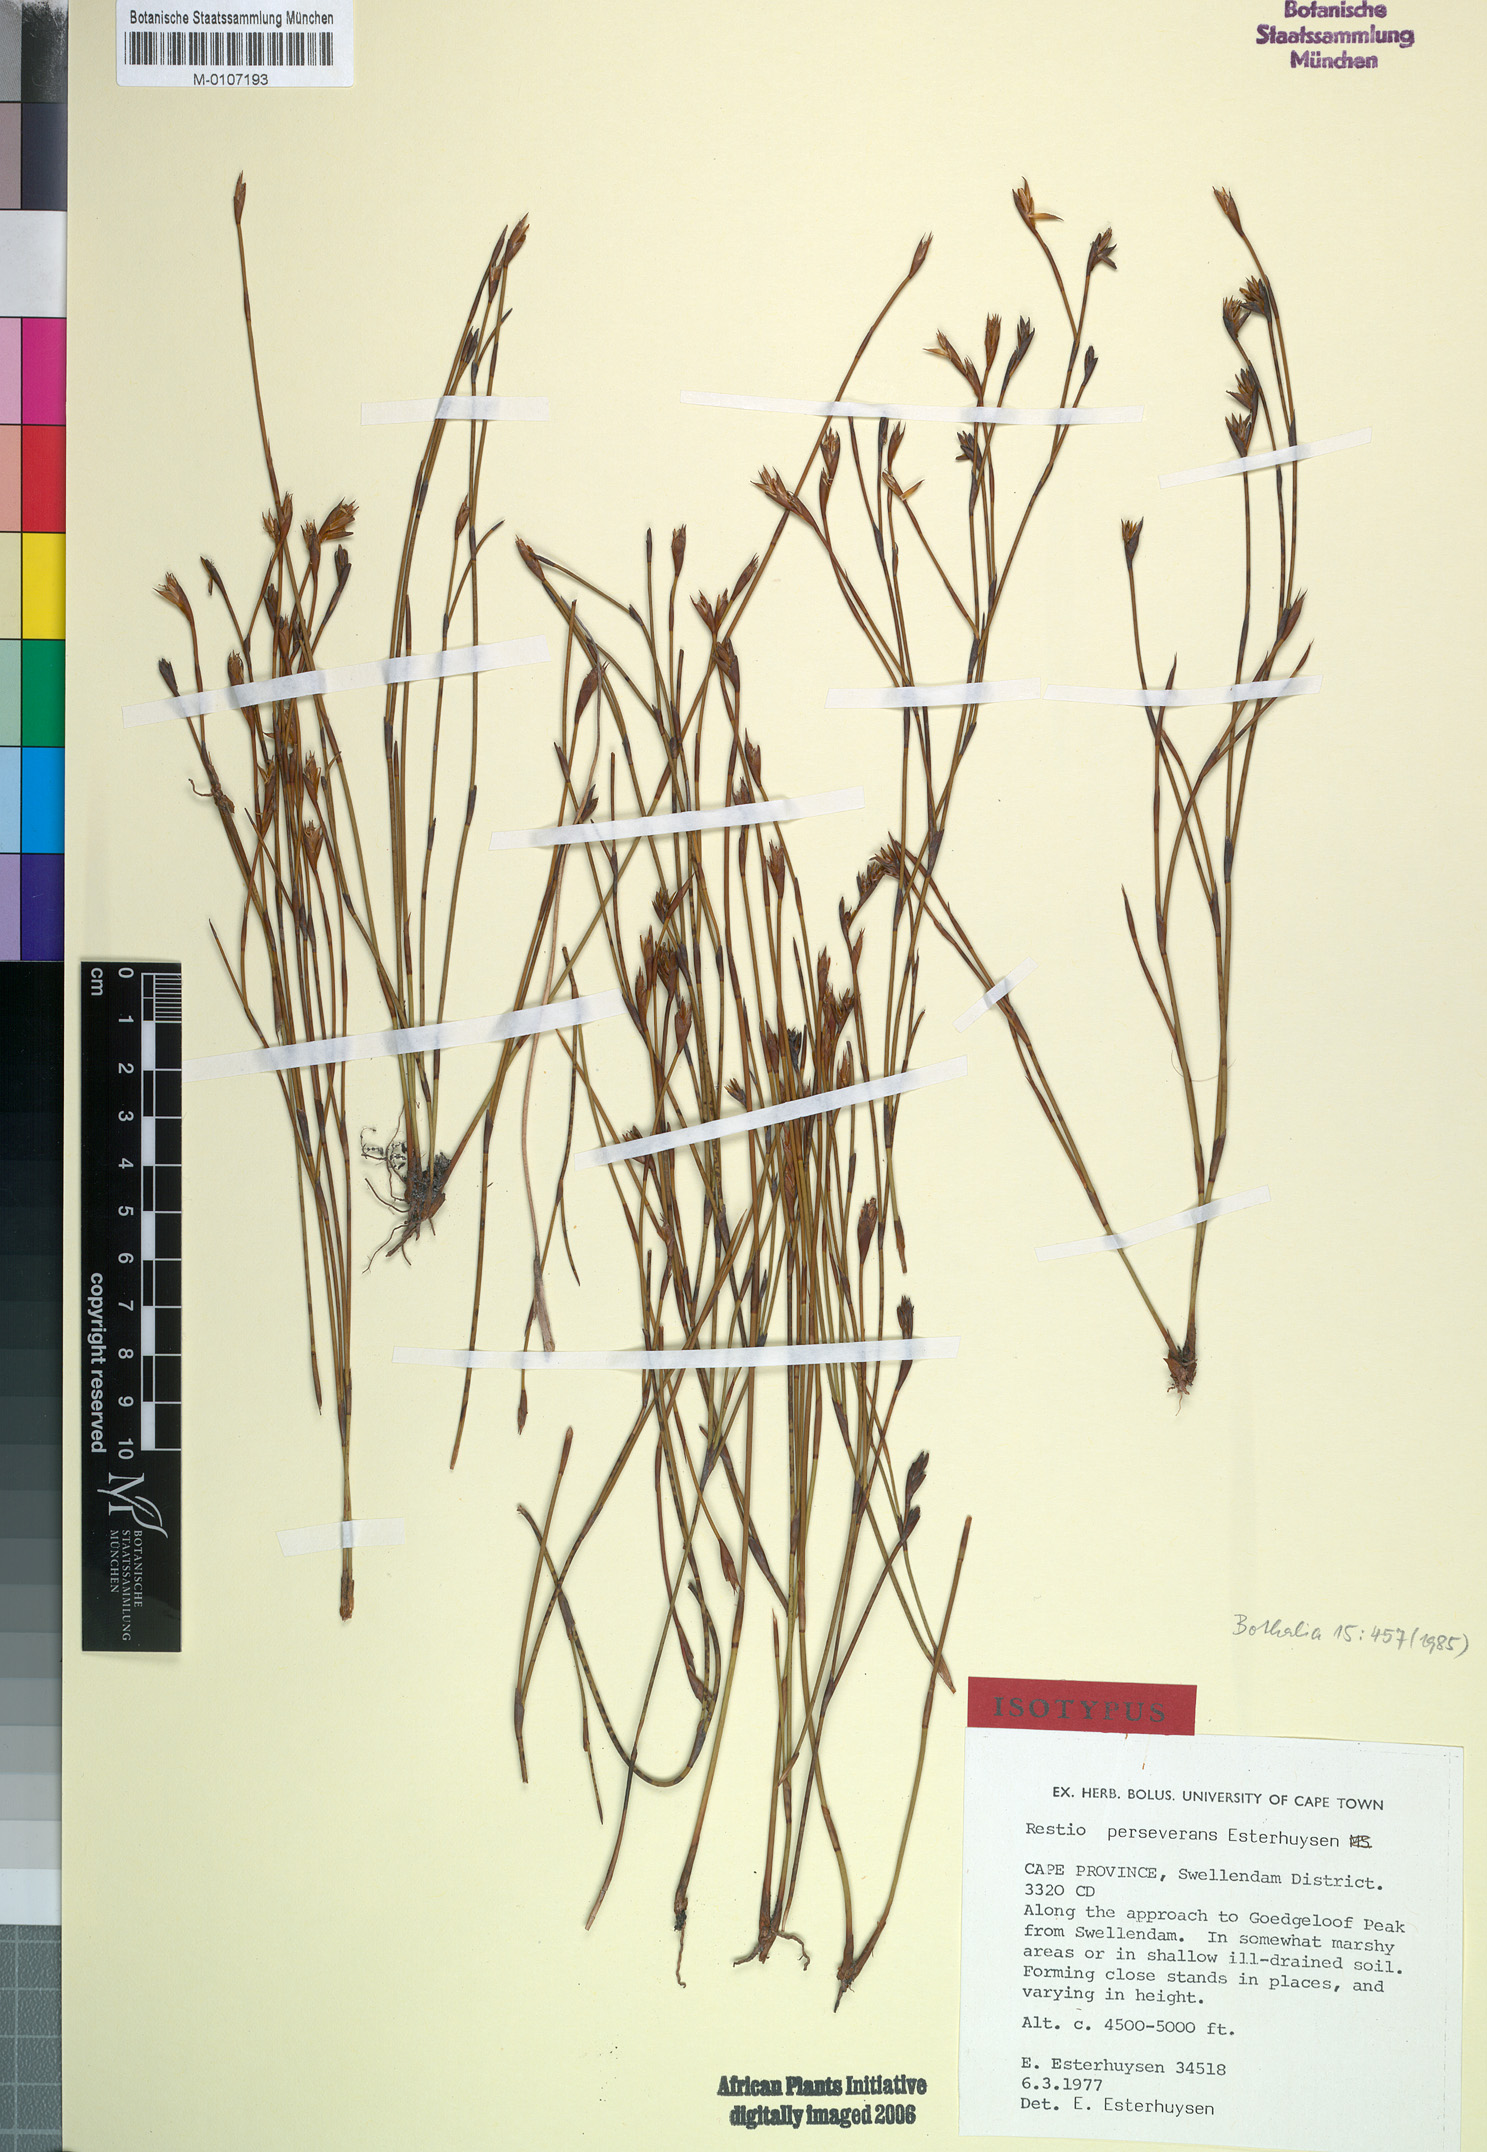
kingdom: Plantae
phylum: Tracheophyta
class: Liliopsida
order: Poales
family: Restionaceae
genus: Restio
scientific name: Restio perseverans
